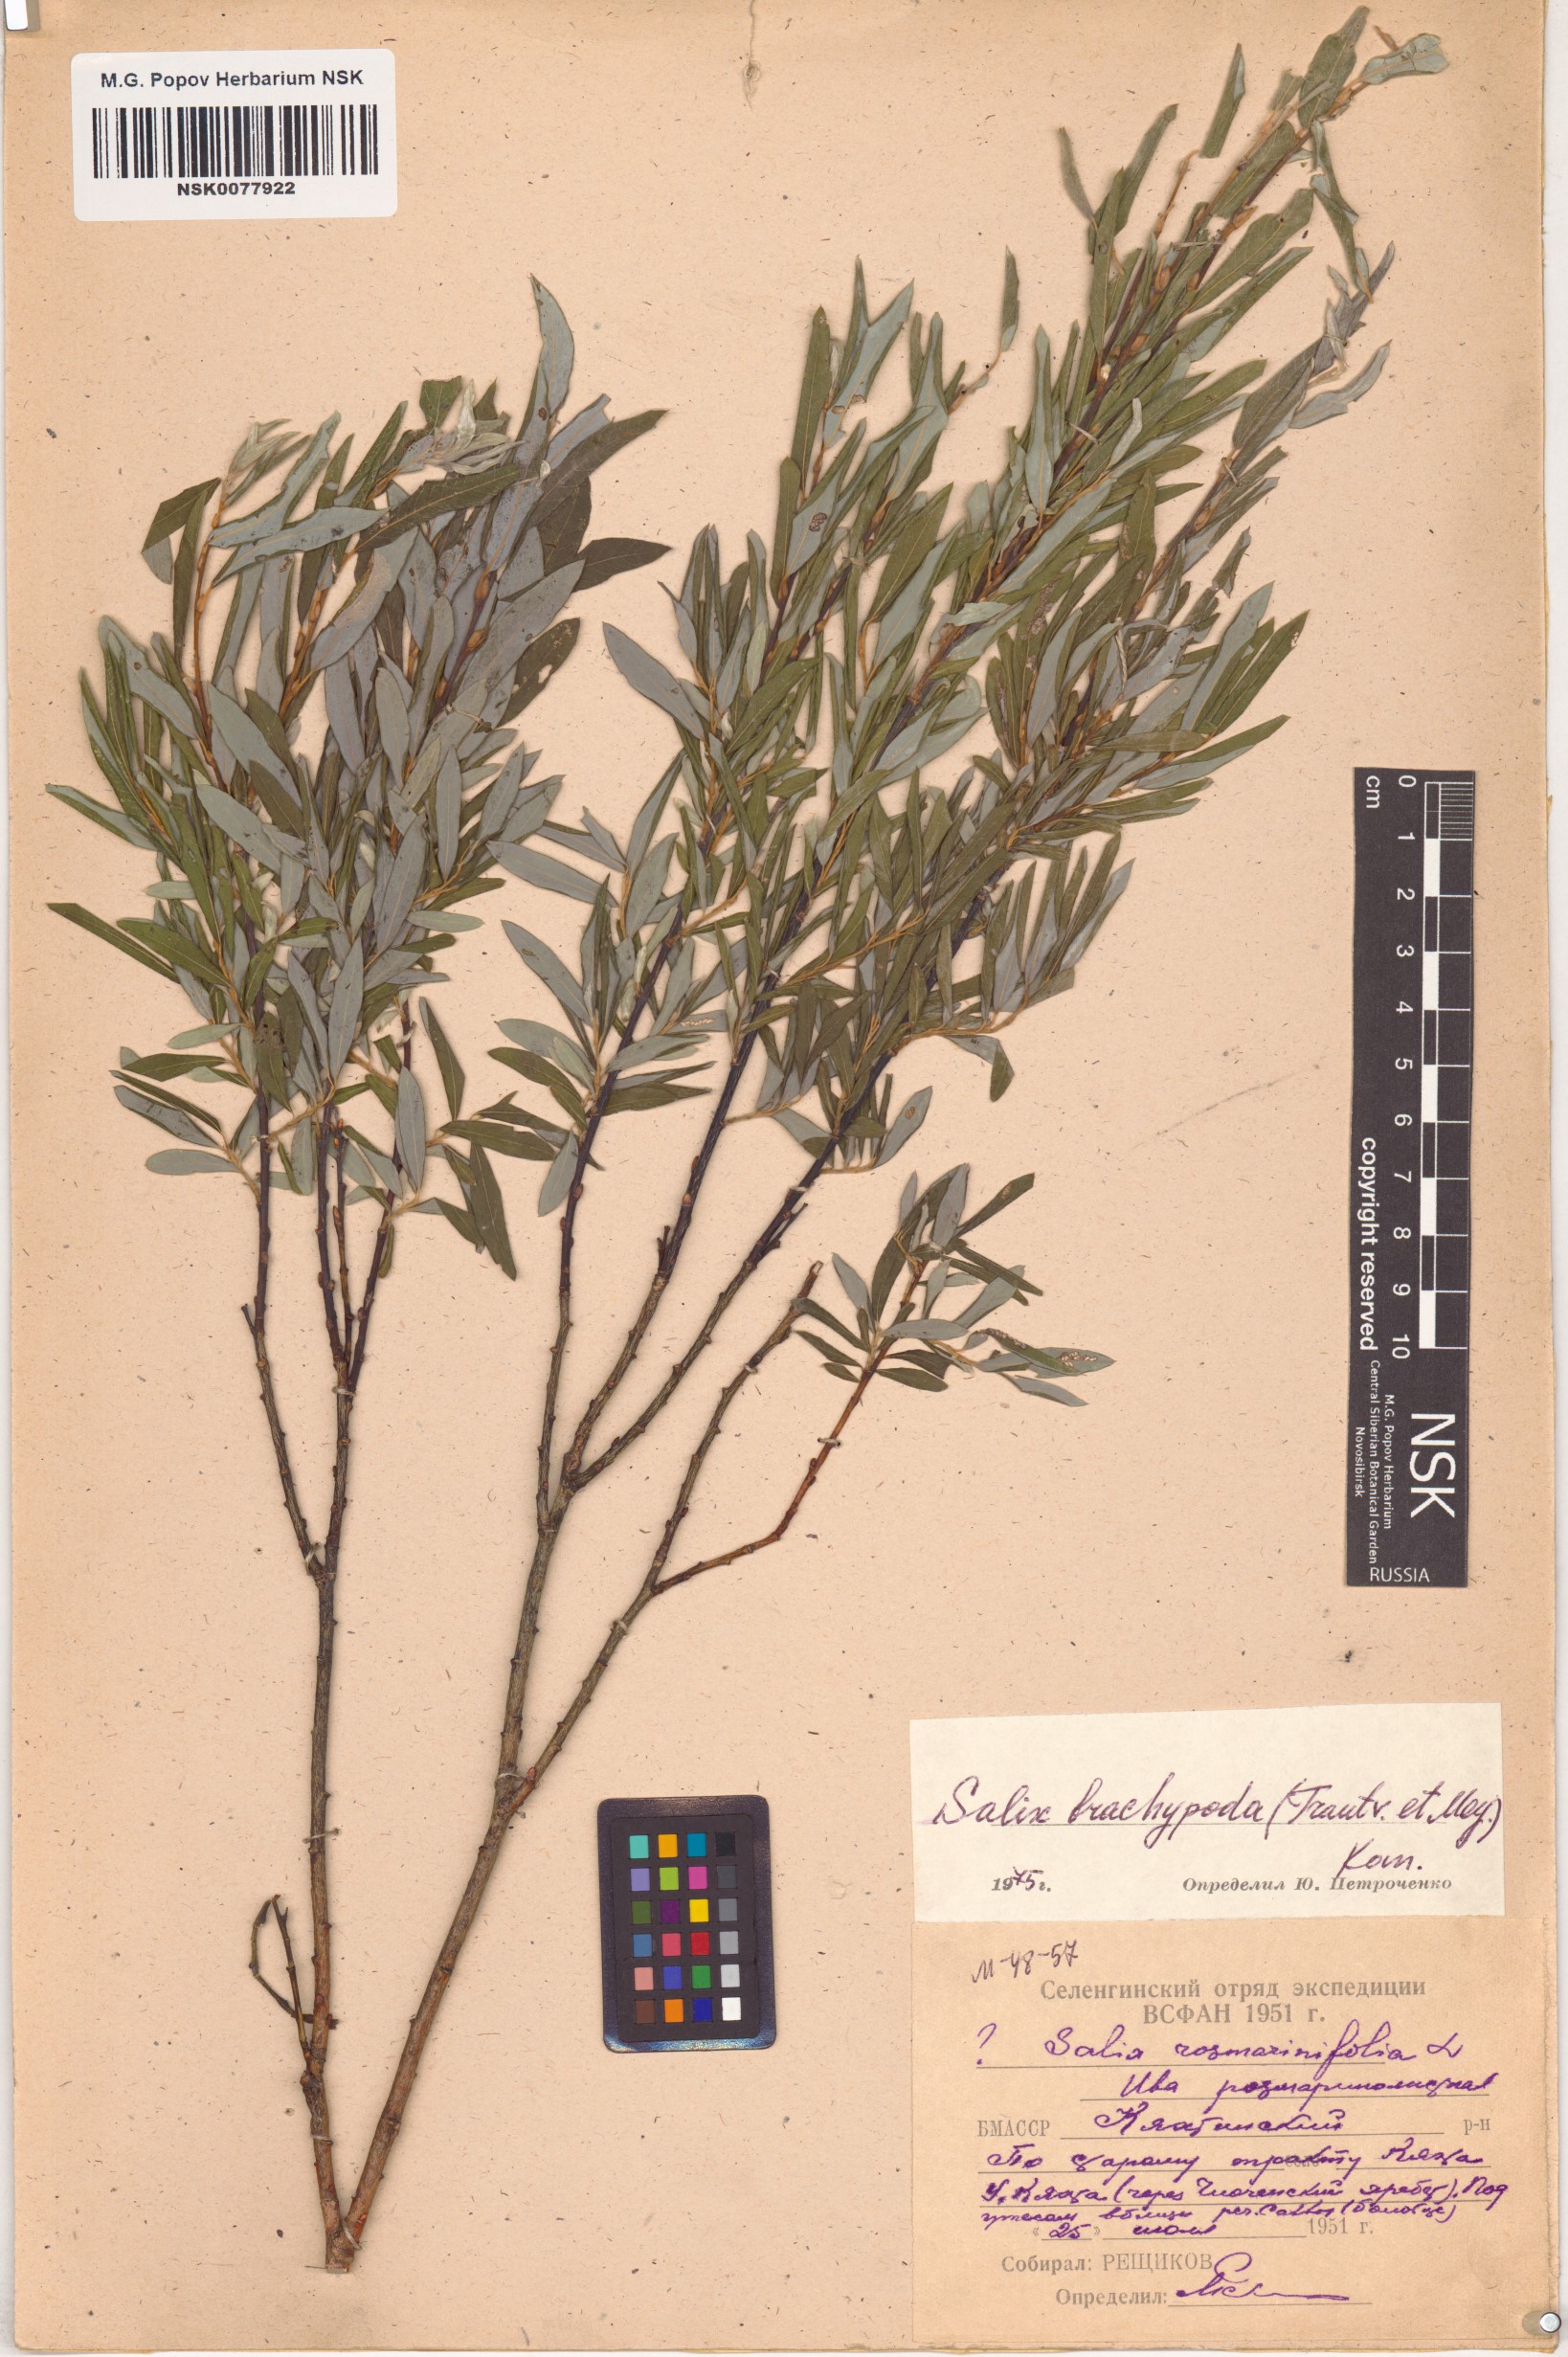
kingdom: Plantae
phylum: Tracheophyta
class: Magnoliopsida
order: Malpighiales
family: Salicaceae
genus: Salix
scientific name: Salix brachypoda
